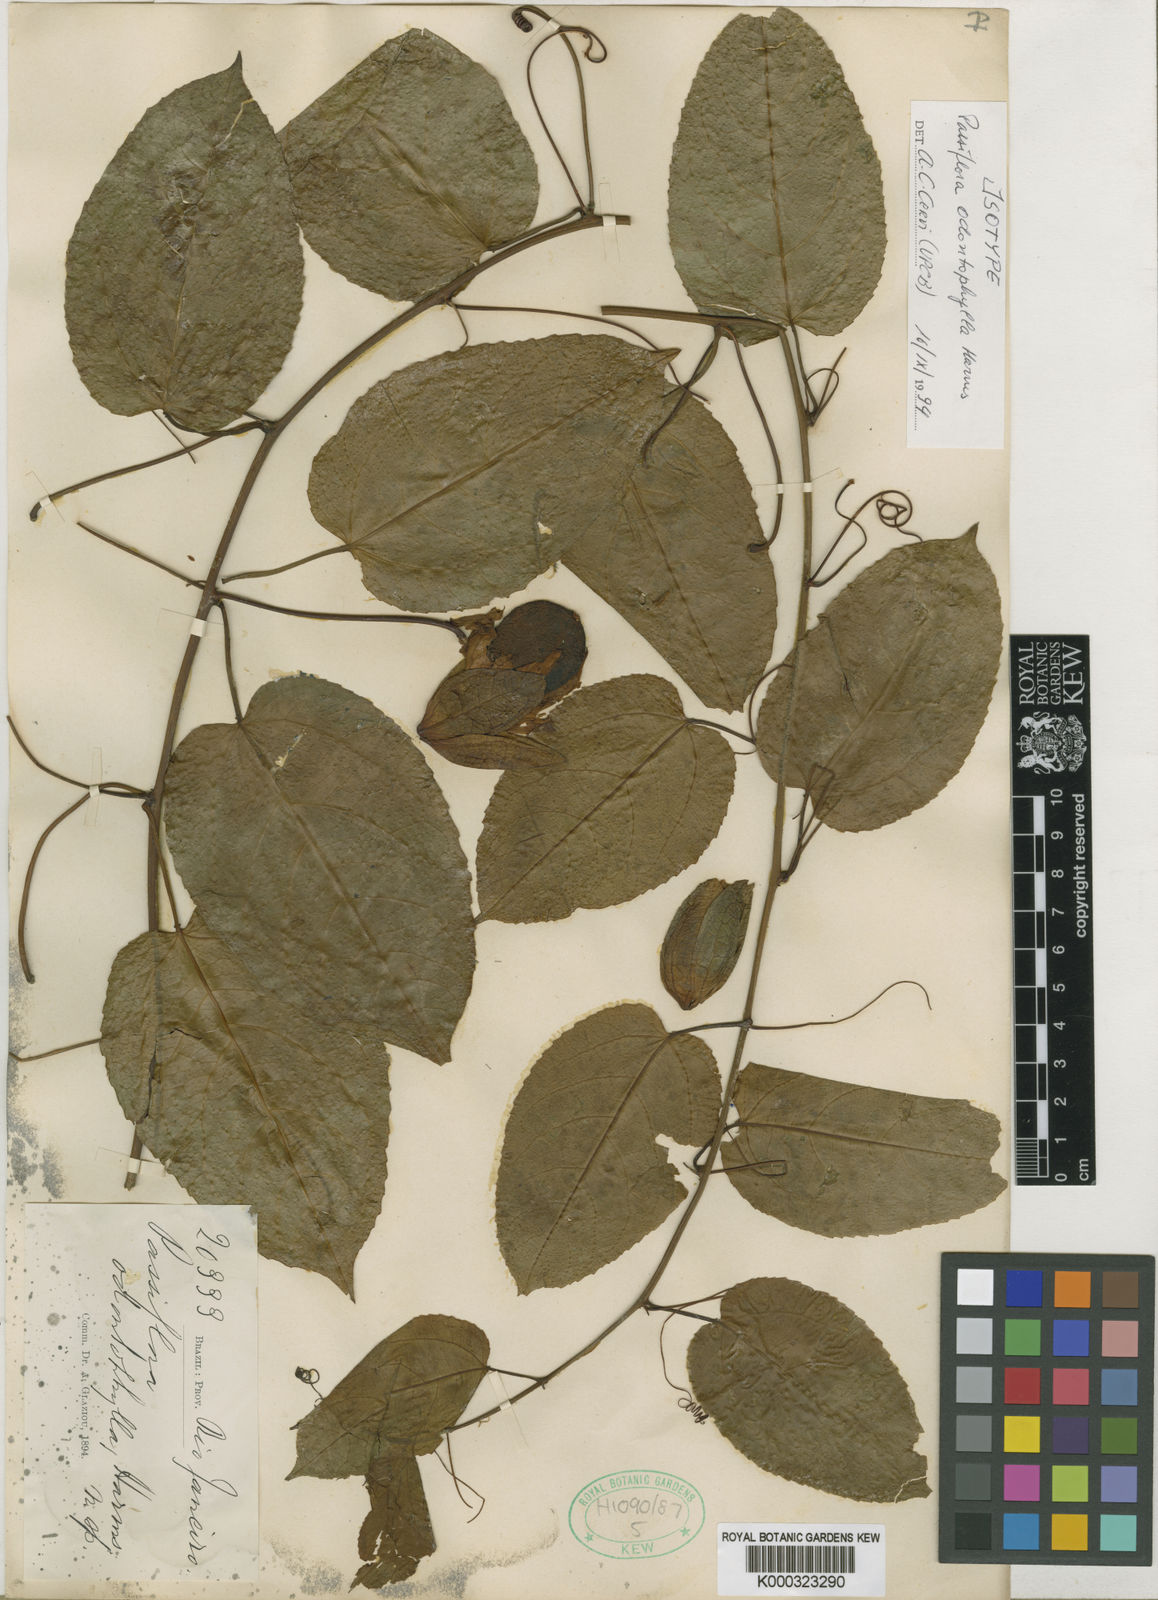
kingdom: Plantae
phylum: Tracheophyta
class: Magnoliopsida
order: Malpighiales
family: Passifloraceae
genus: Passiflora
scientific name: Passiflora
